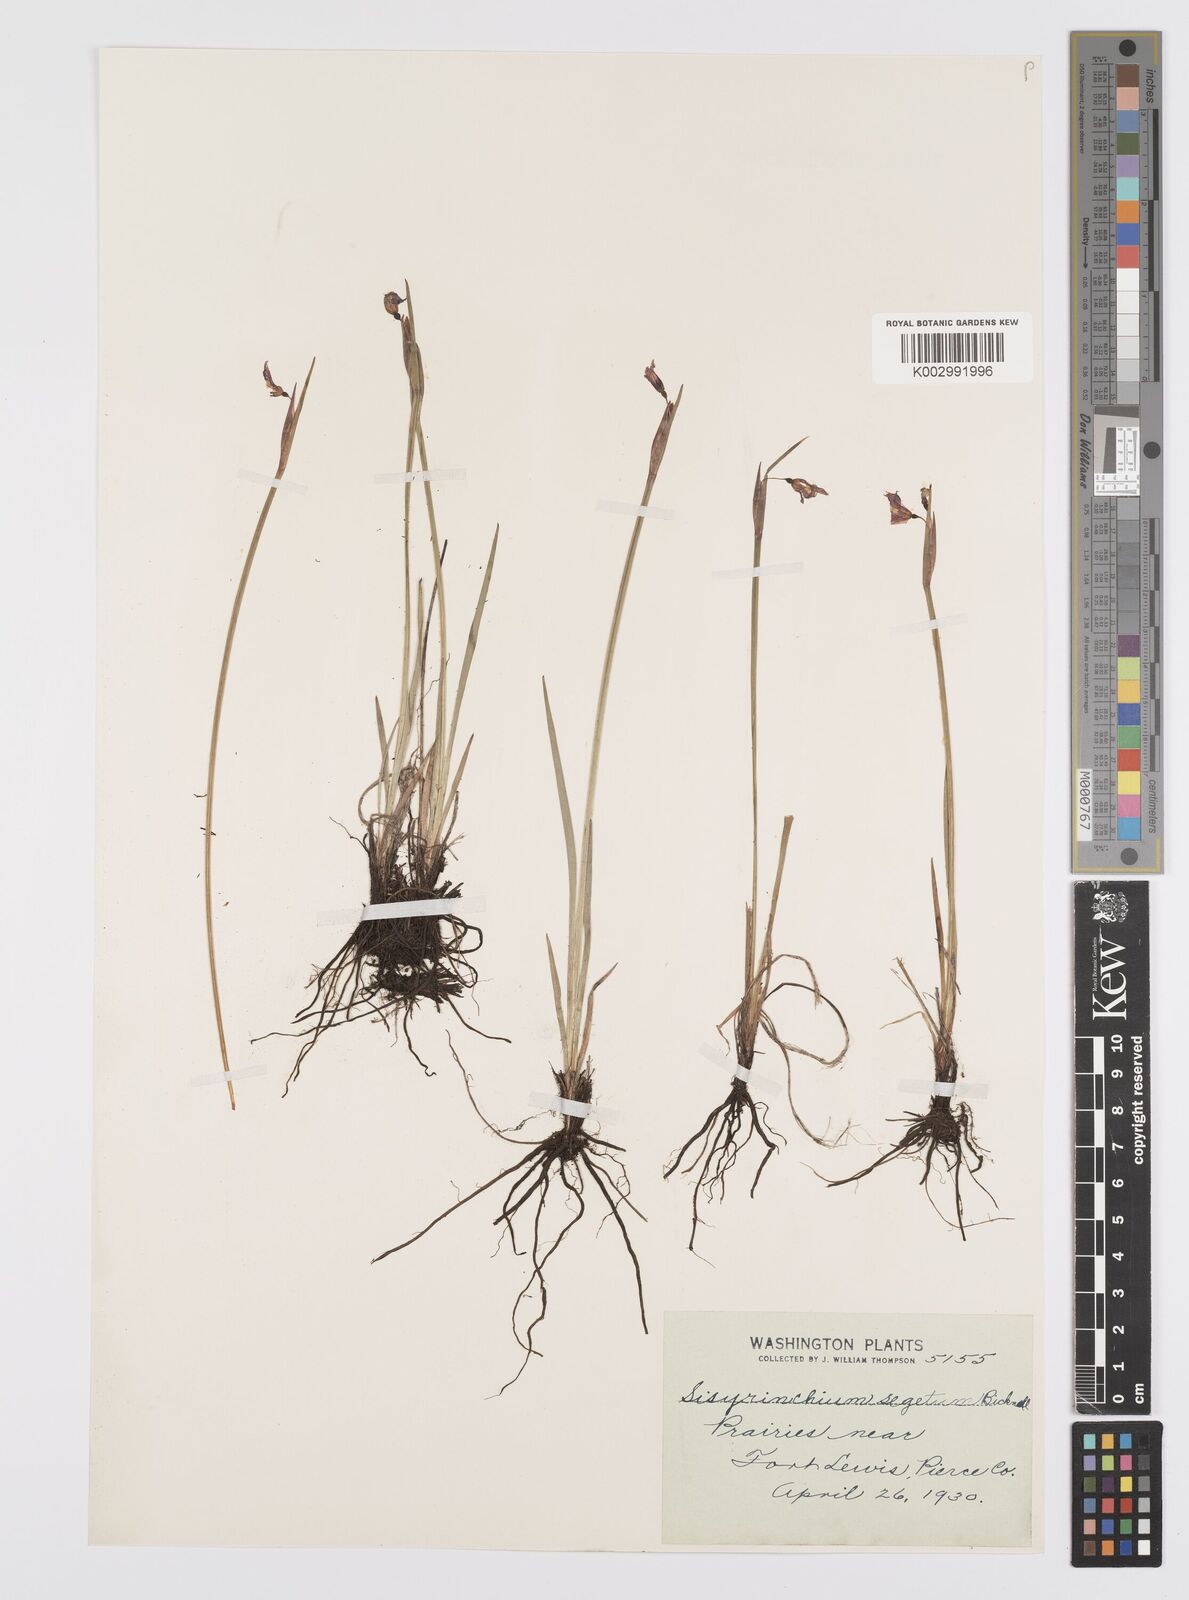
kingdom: Plantae
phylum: Tracheophyta
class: Liliopsida
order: Asparagales
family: Iridaceae
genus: Sisyrinchium
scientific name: Sisyrinchium idahoense
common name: Idaho blue-eyed-grass
